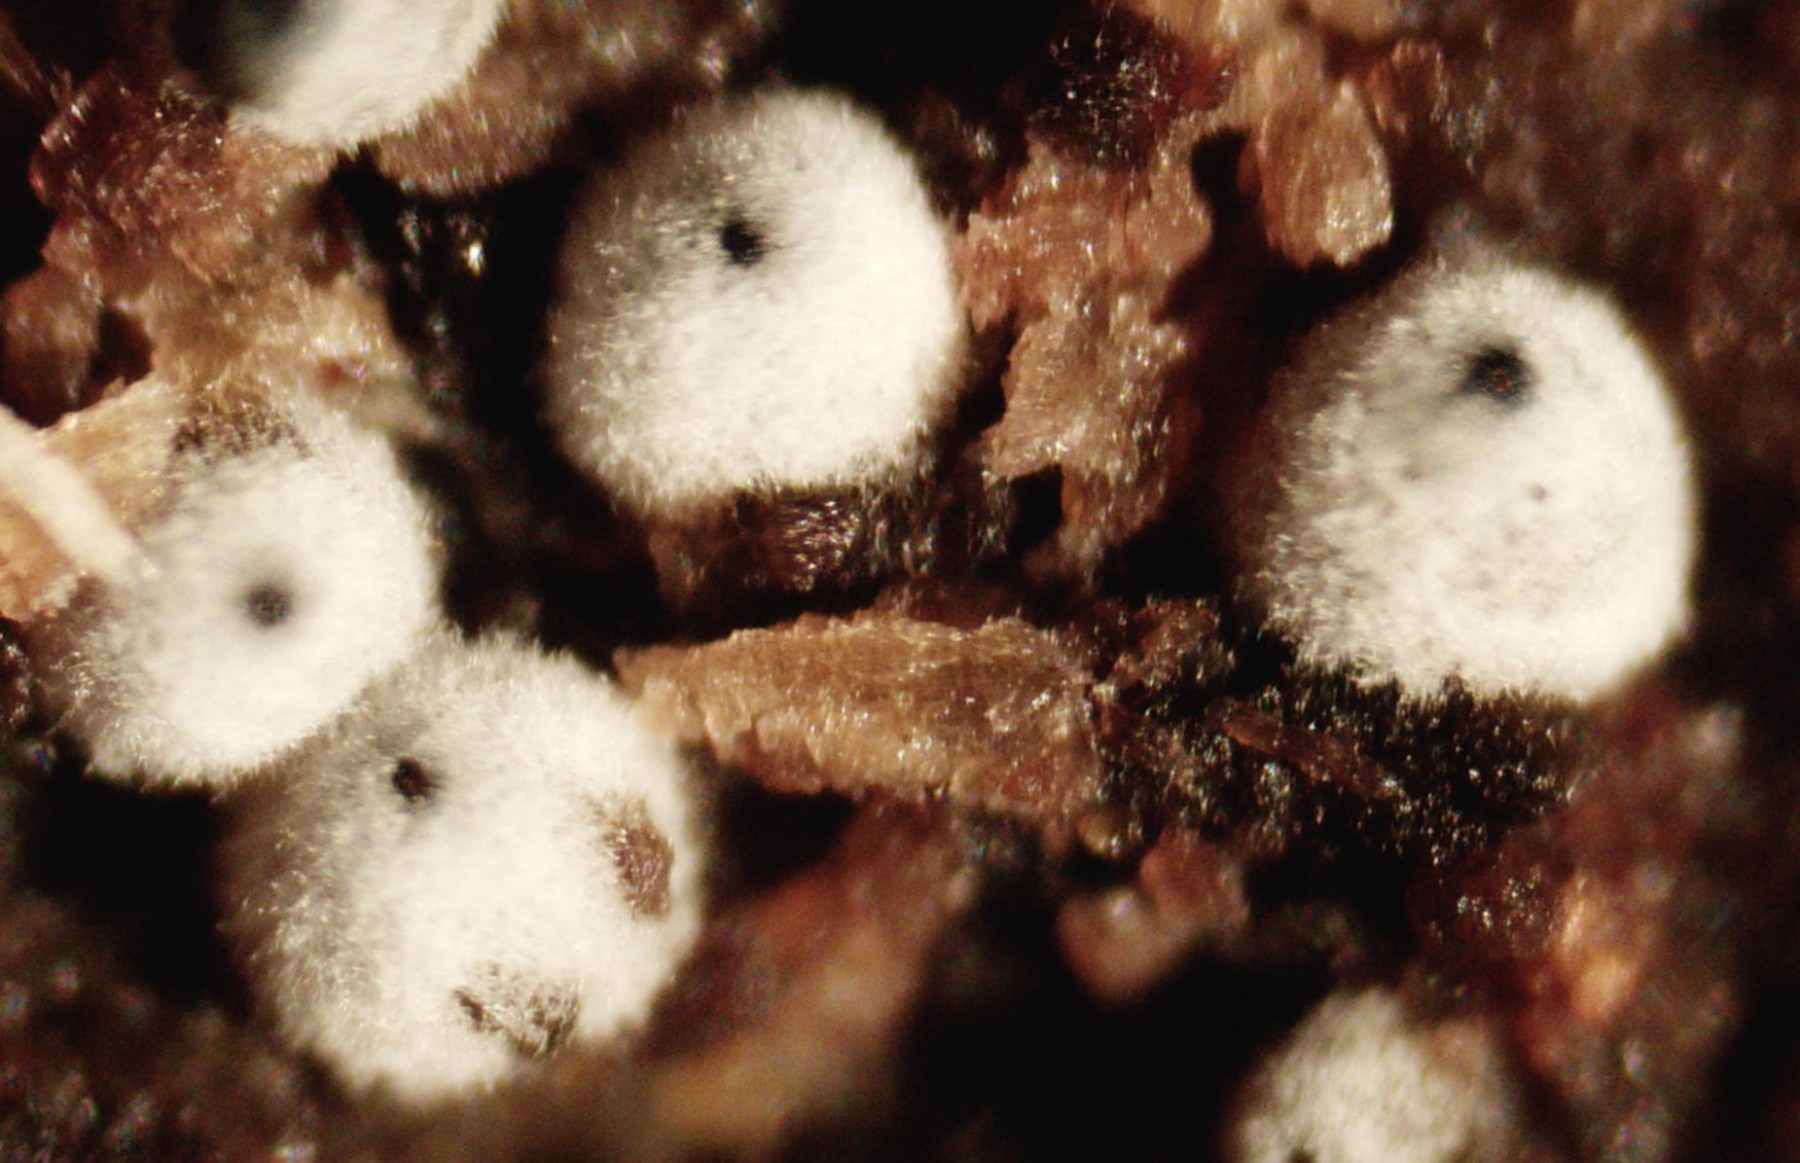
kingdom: Fungi
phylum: Ascomycota
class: Sordariomycetes
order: Sordariales
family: Lasiosphaeriaceae
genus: Lasiosphaeria
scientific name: Lasiosphaeria ovina
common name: fåre-kernesvamp
